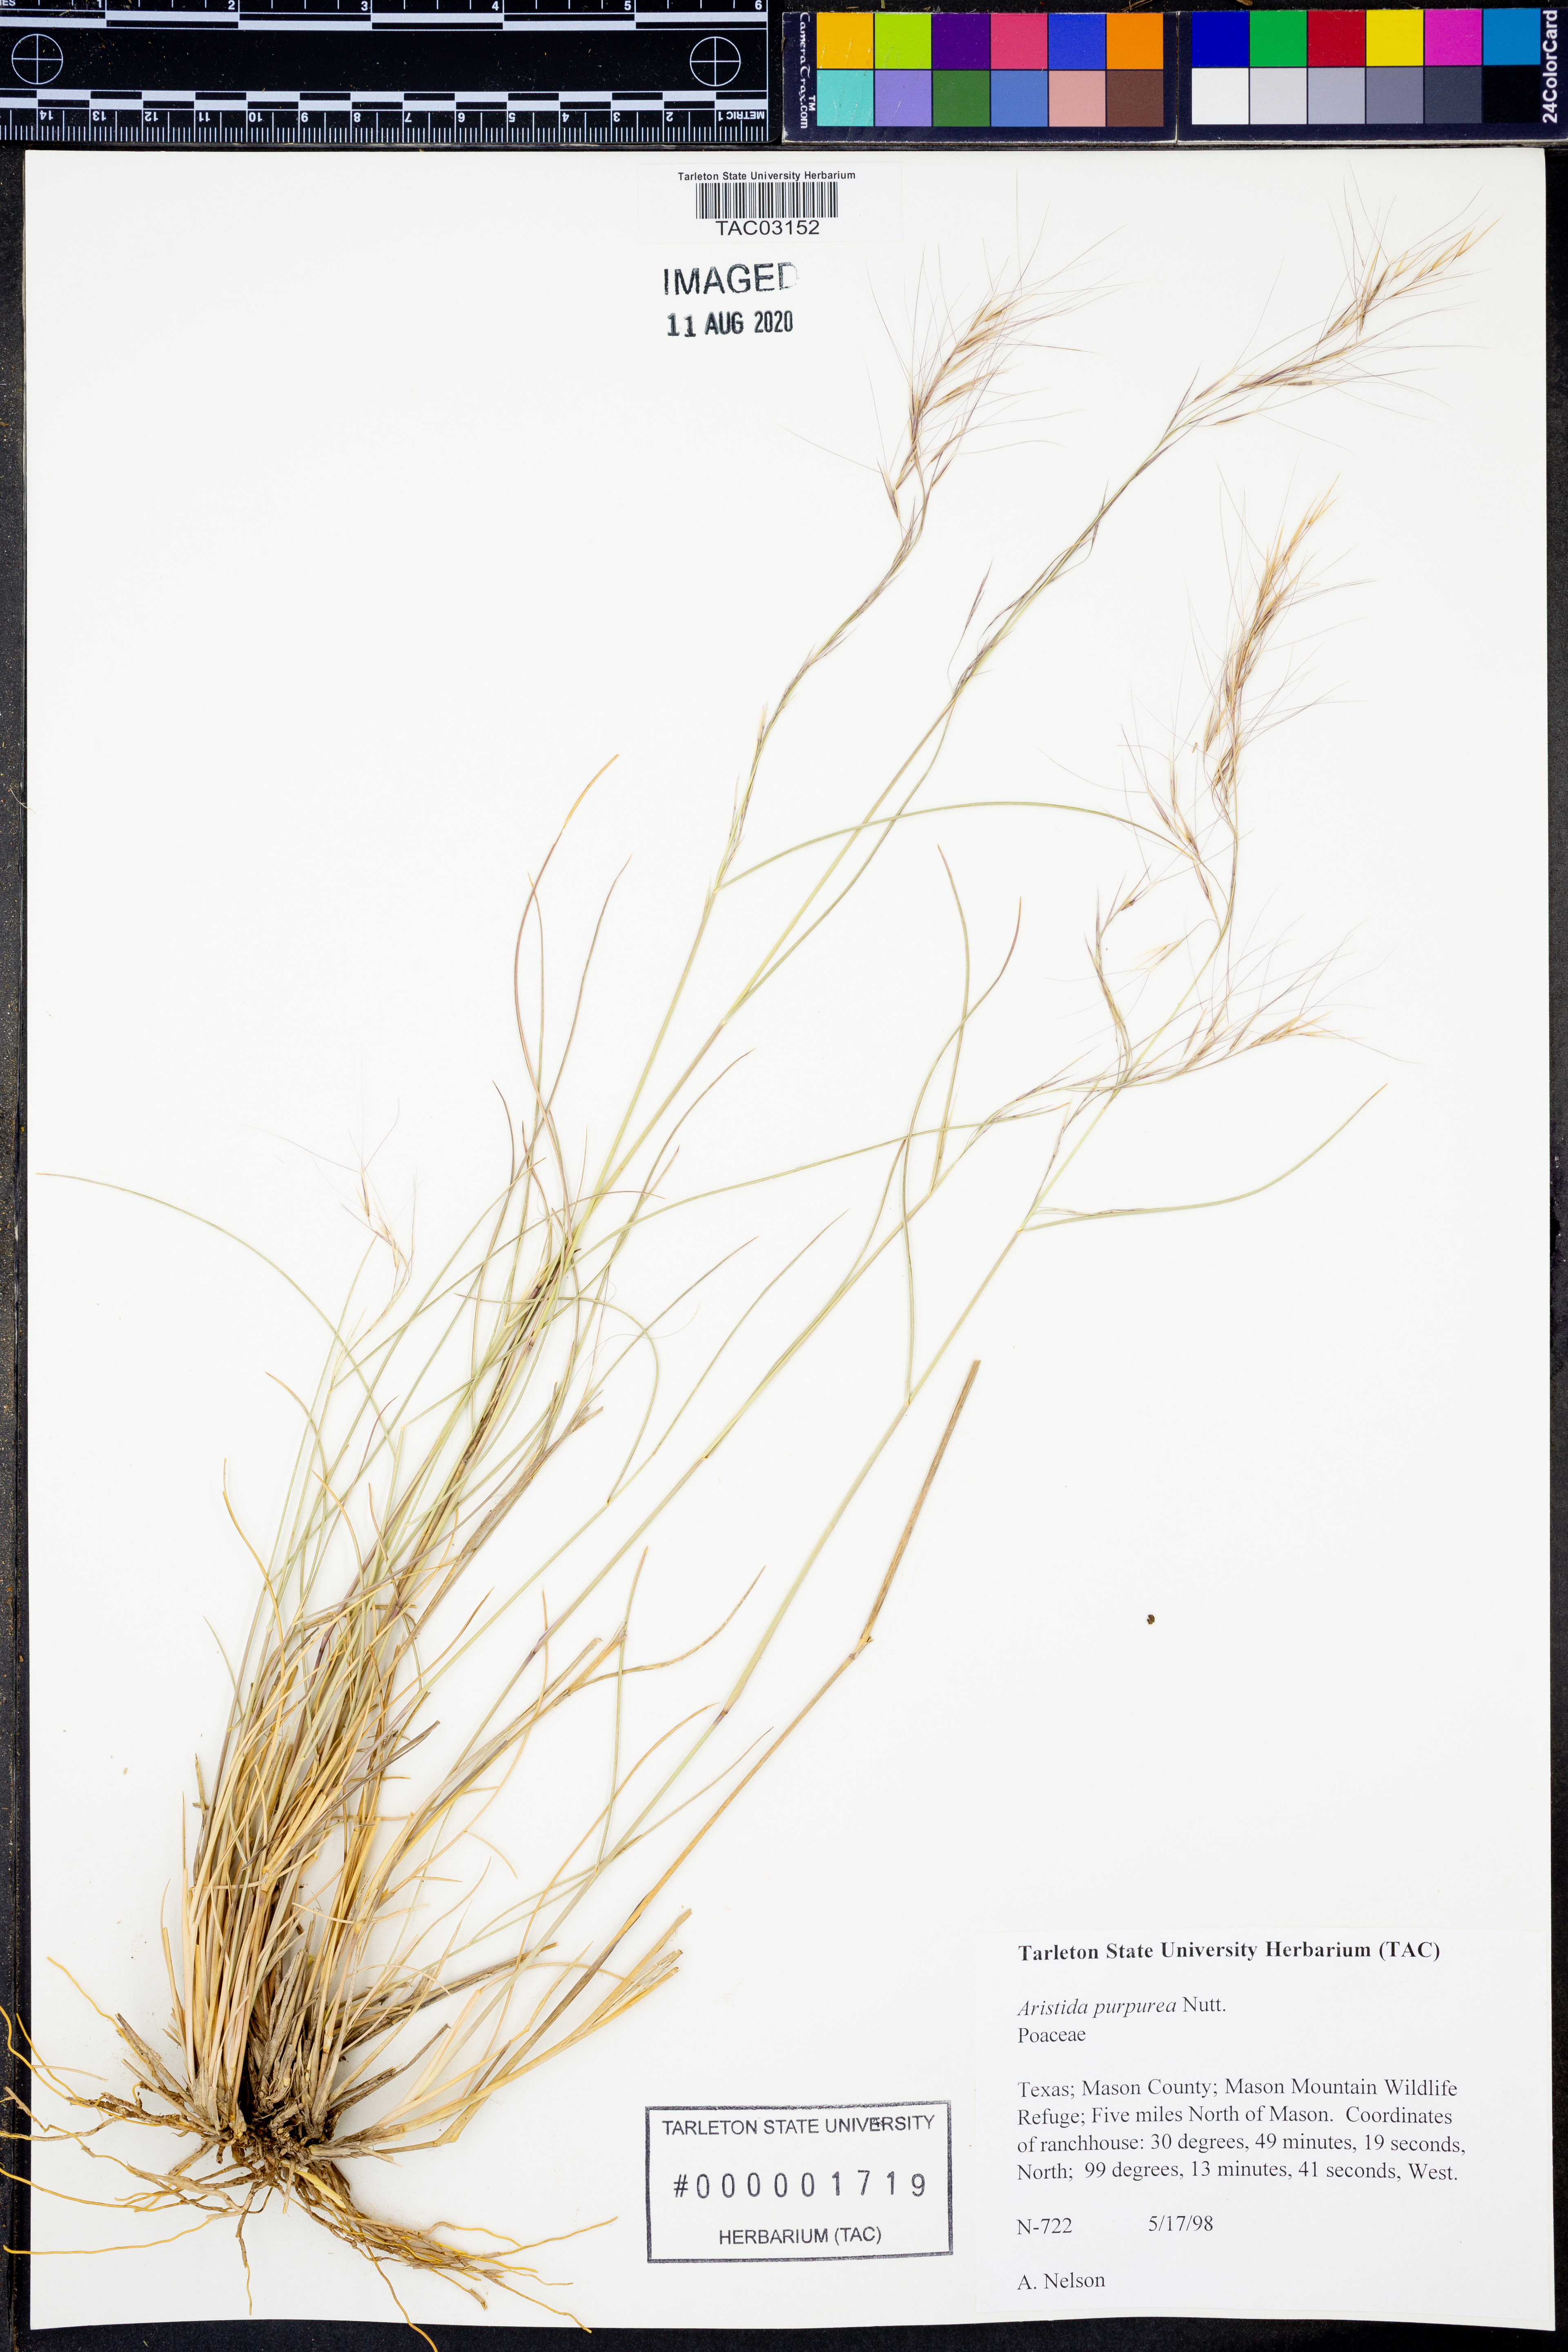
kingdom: Plantae
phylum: Tracheophyta
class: Liliopsida
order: Poales
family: Poaceae
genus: Aristida
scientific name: Aristida purpurea
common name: Purple threeawn
